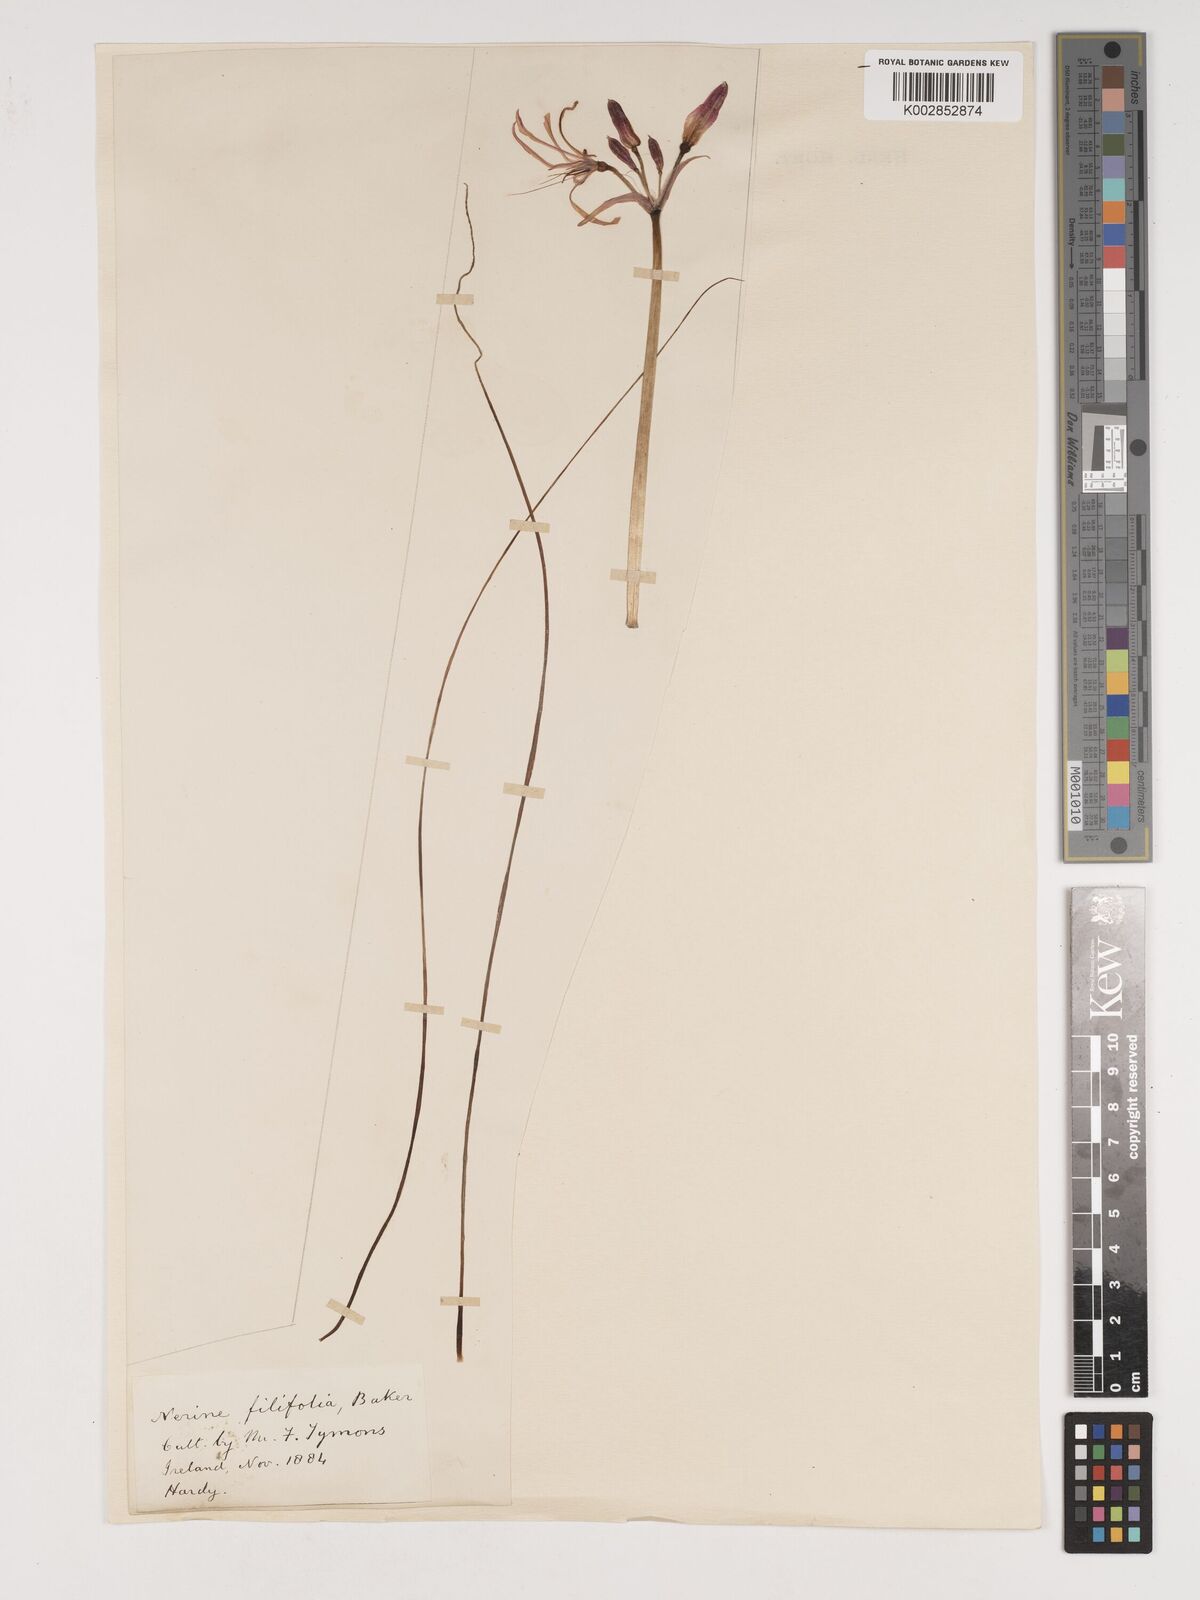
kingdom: Plantae
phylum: Tracheophyta
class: Liliopsida
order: Asparagales
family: Amaryllidaceae
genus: Nerine
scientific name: Nerine filifolia
